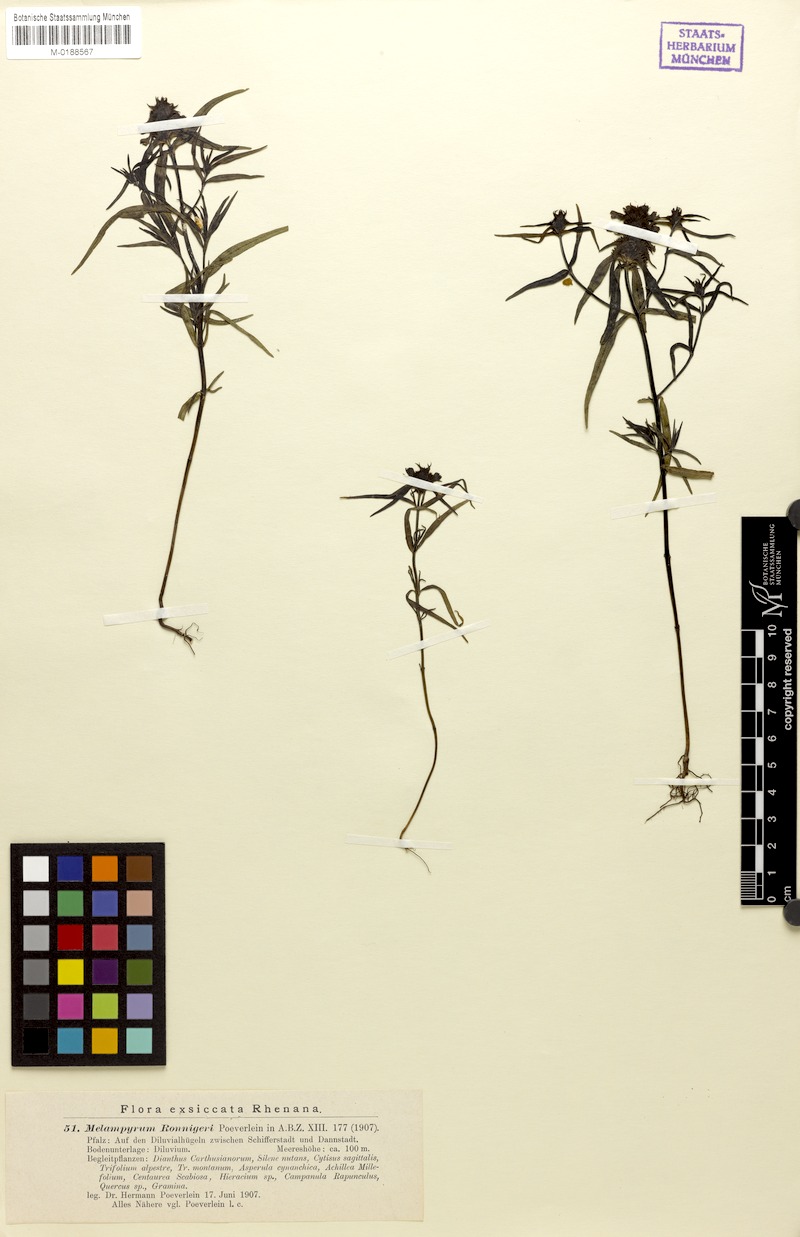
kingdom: Plantae
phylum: Tracheophyta
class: Magnoliopsida
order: Lamiales
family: Orobanchaceae
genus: Melampyrum
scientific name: Melampyrum cristatum
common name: Crested cow-wheat
